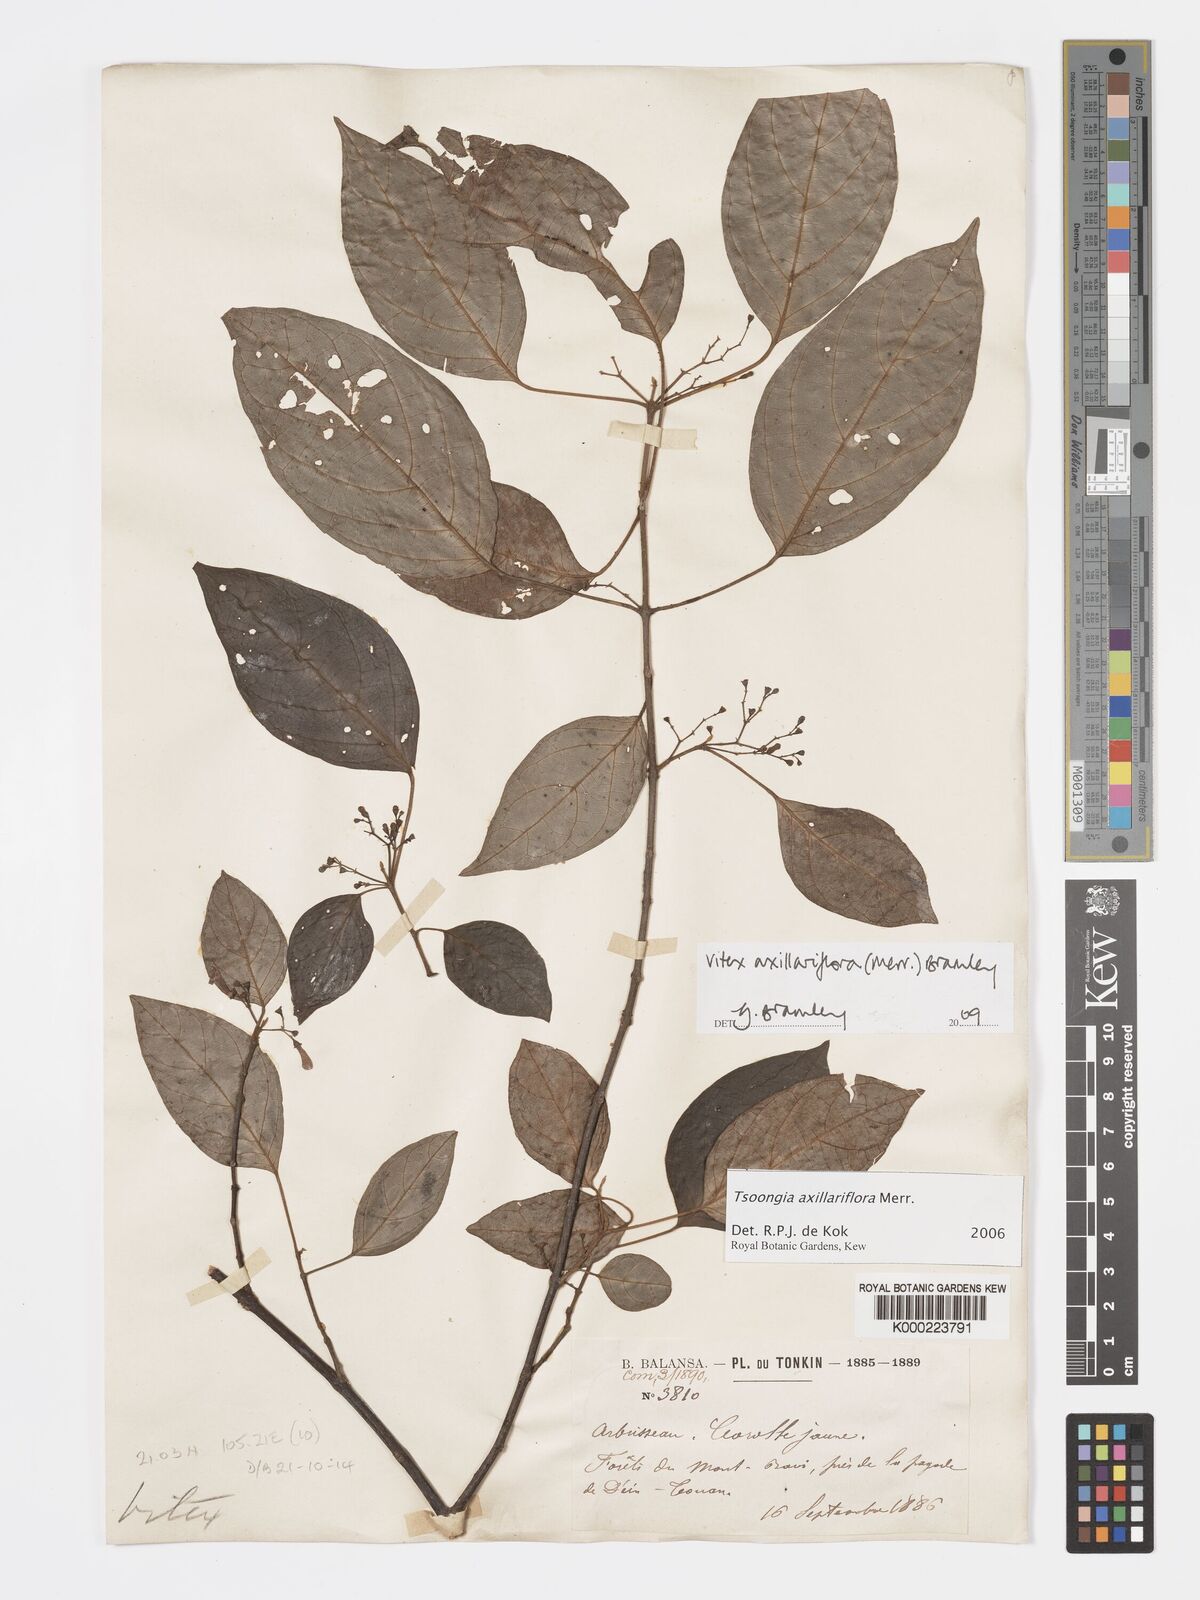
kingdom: Plantae
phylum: Tracheophyta
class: Magnoliopsida
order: Lamiales
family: Lamiaceae
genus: Vitex
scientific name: Vitex axillariflora
